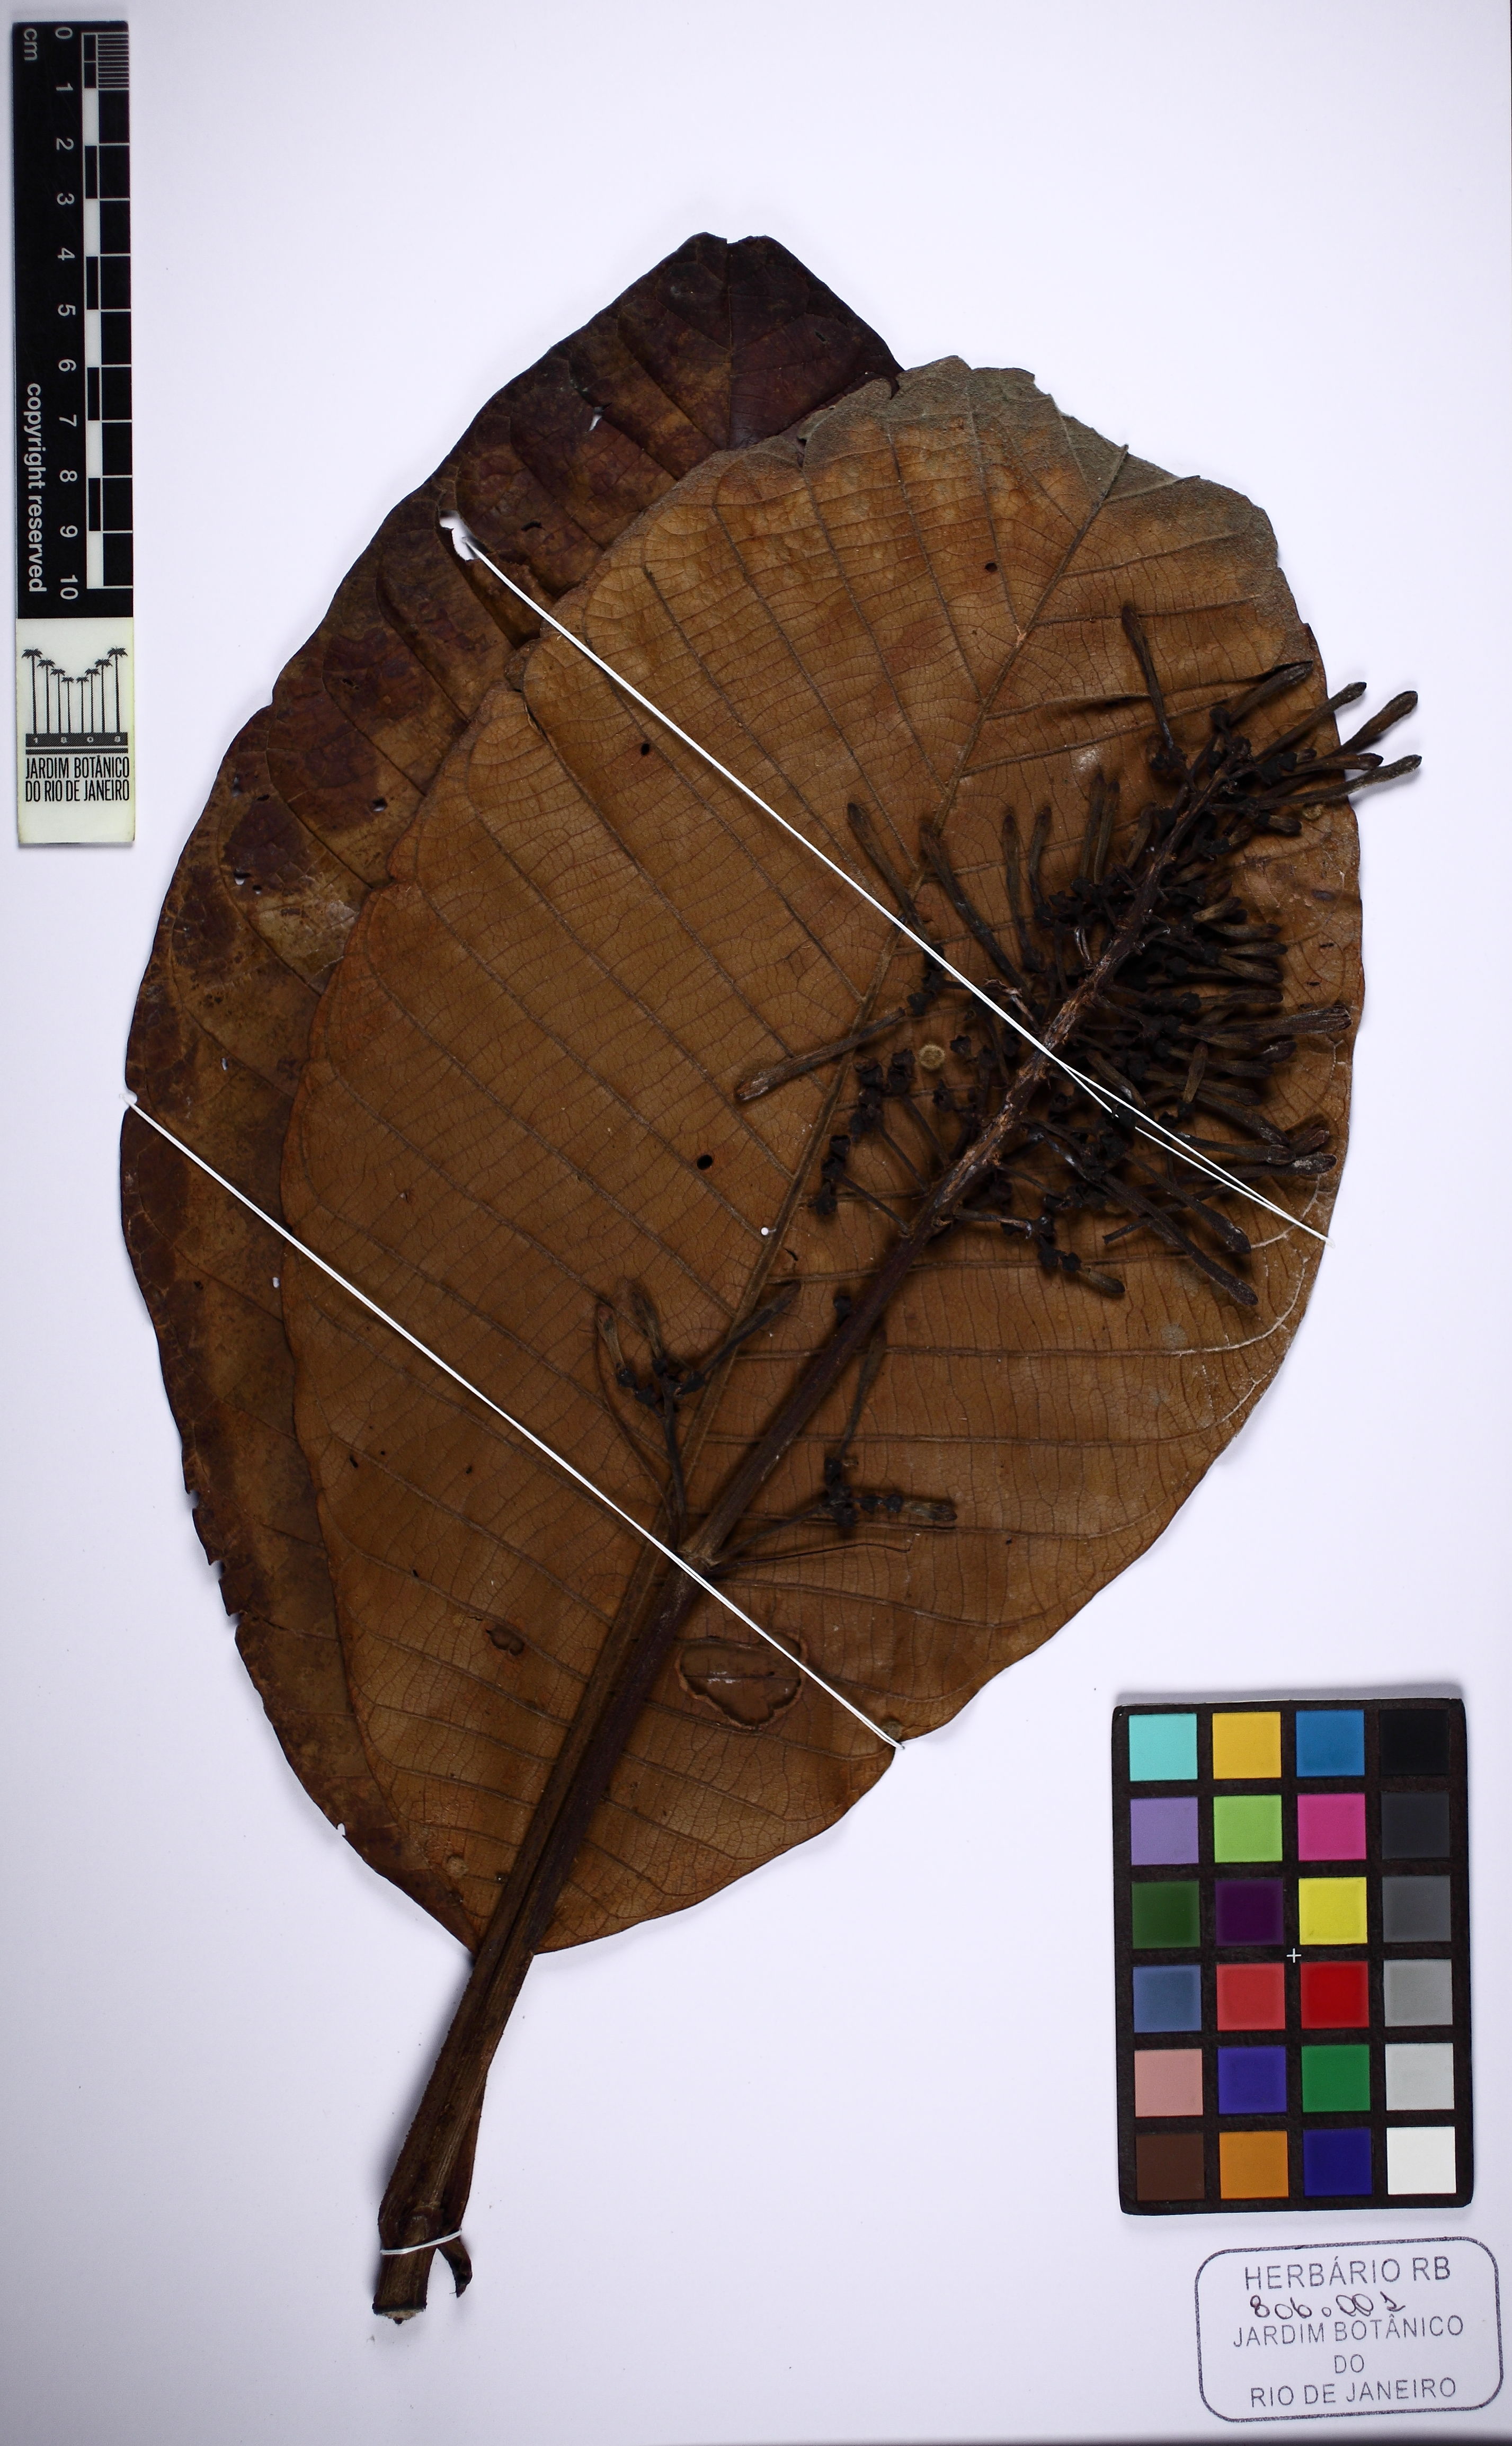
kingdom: Plantae
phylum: Tracheophyta
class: Magnoliopsida
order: Gentianales
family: Rubiaceae
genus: Palicourea
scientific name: Palicourea
